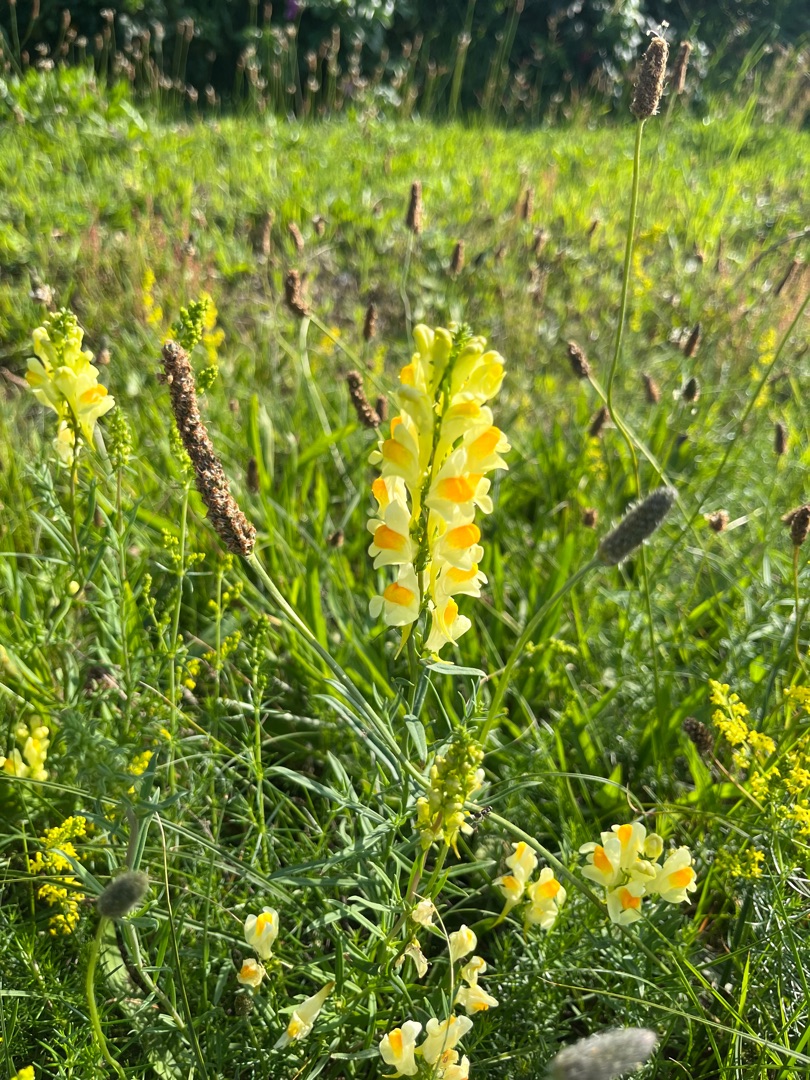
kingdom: Plantae
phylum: Tracheophyta
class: Magnoliopsida
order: Lamiales
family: Plantaginaceae
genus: Linaria
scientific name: Linaria vulgaris
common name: Almindelig torskemund
